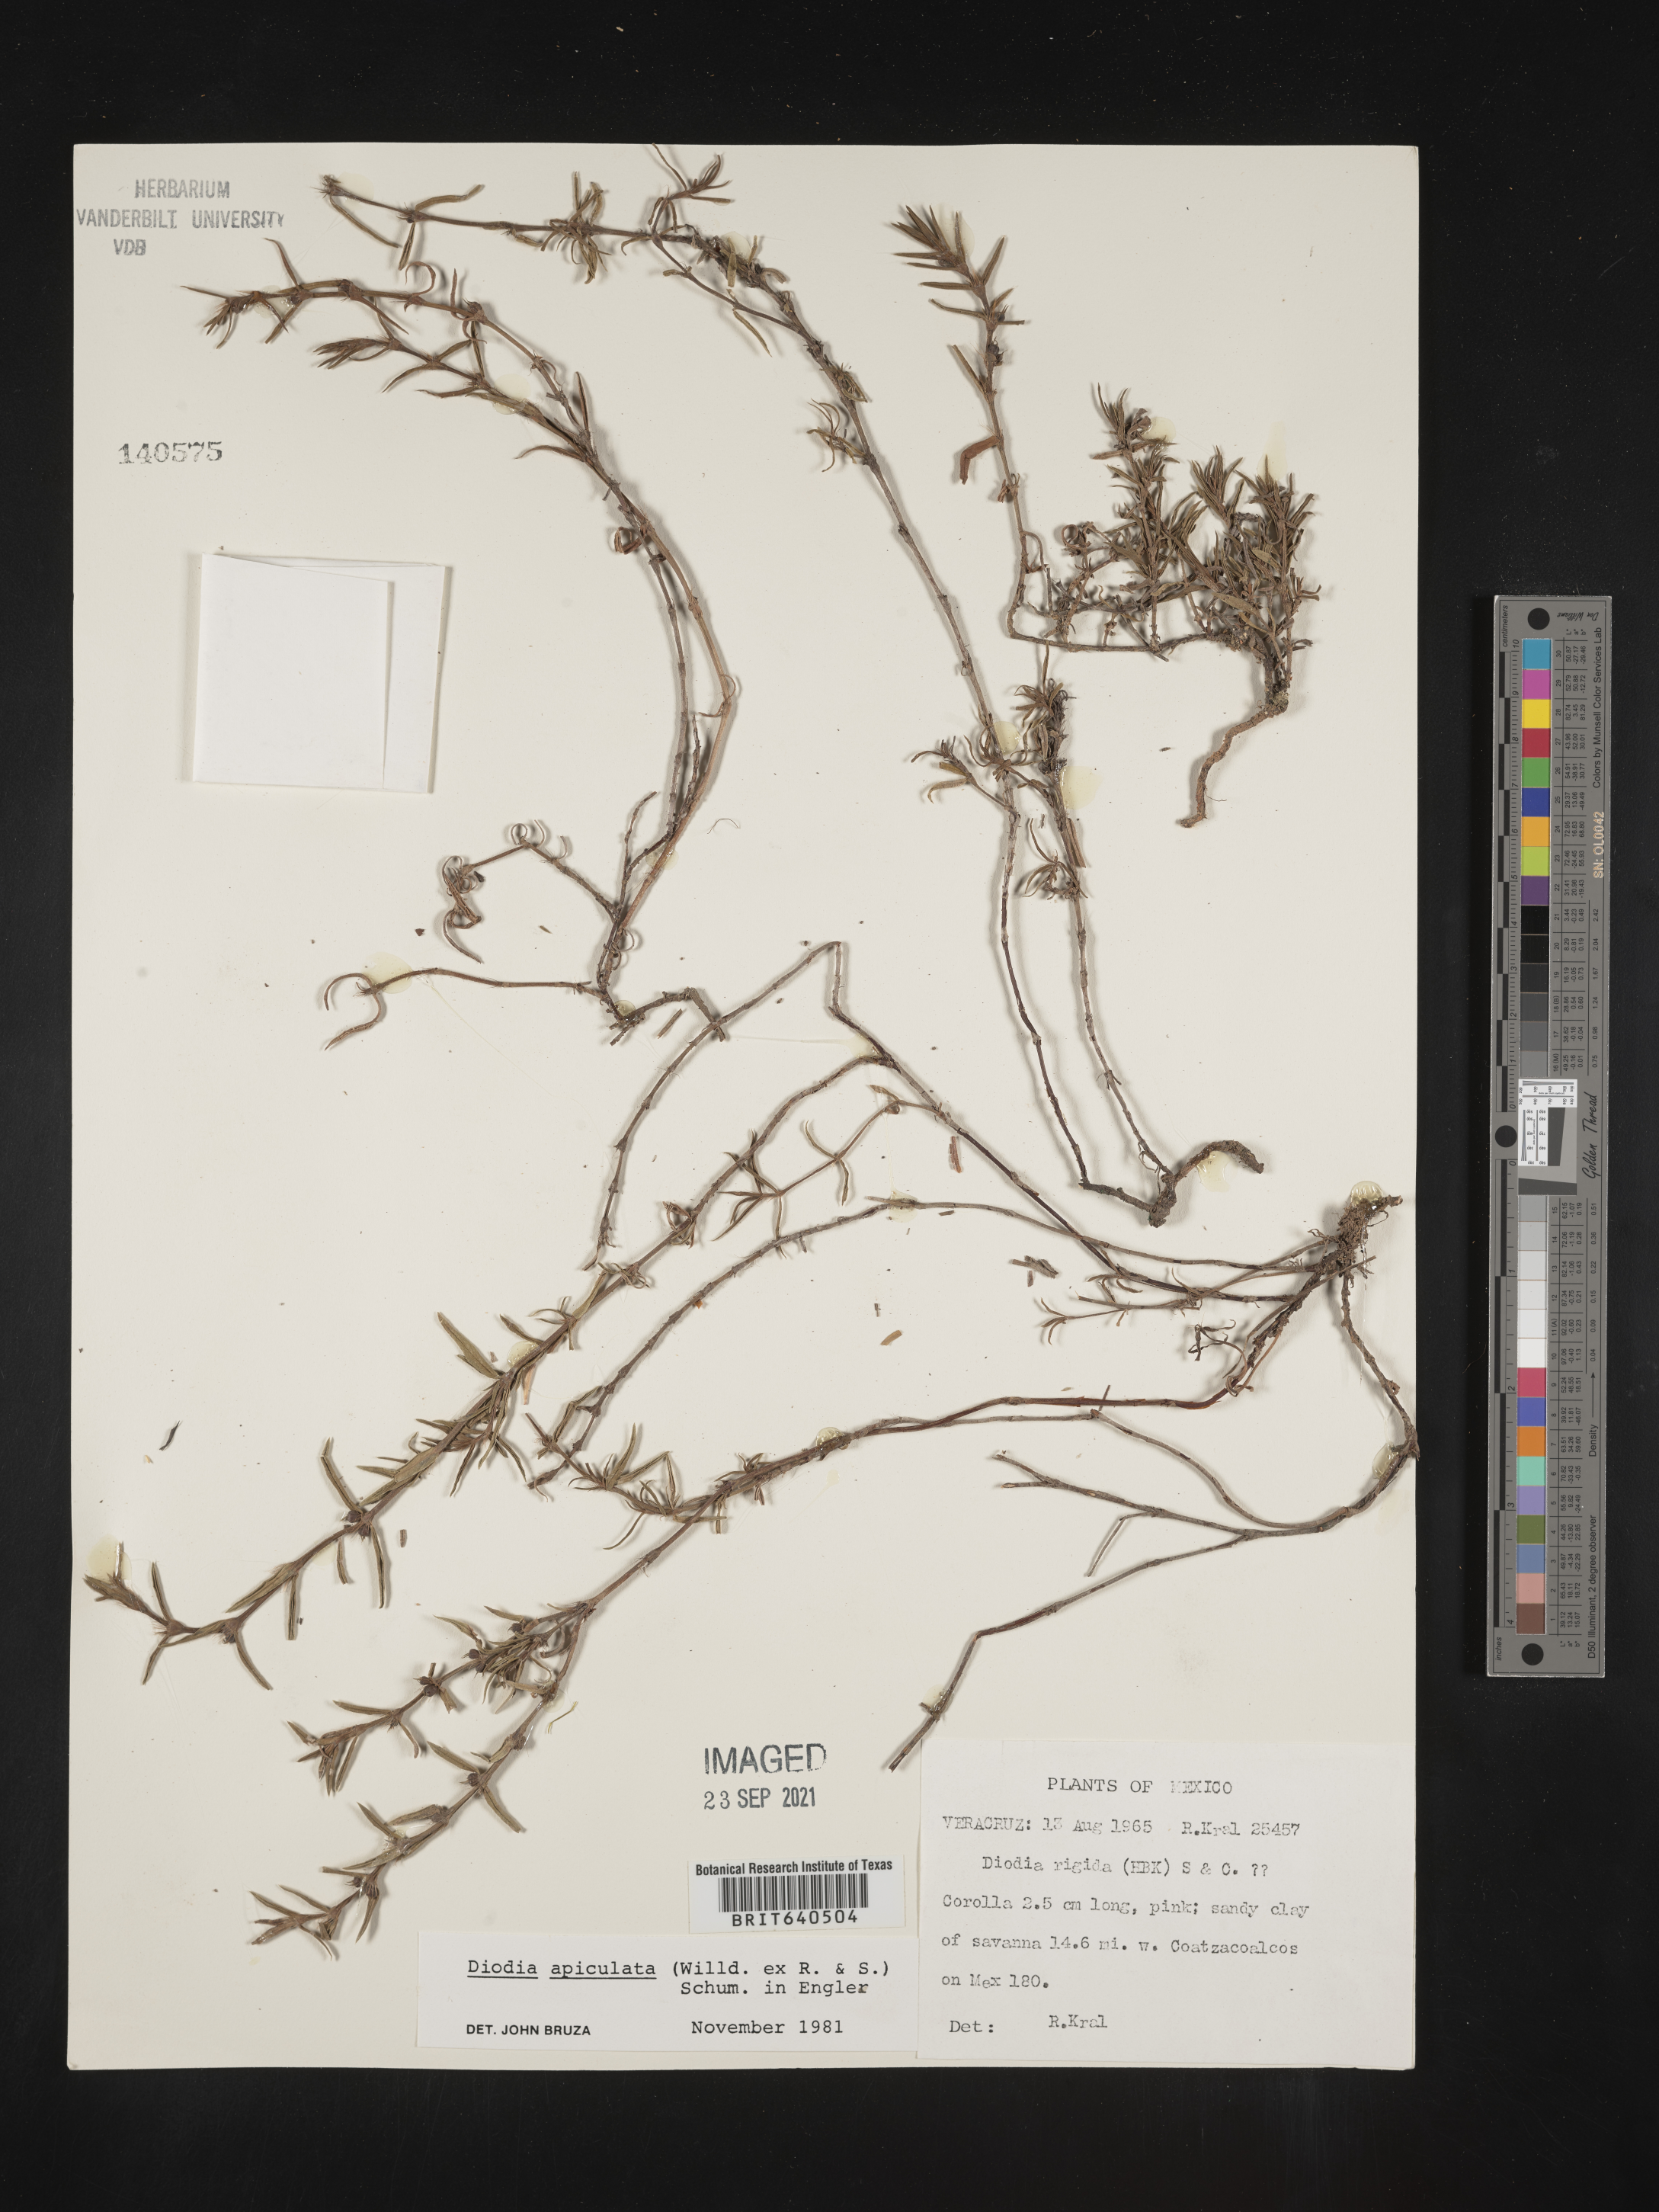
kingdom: Plantae
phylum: Tracheophyta
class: Magnoliopsida
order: Gentianales
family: Rubiaceae
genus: Diodia
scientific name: Diodia
